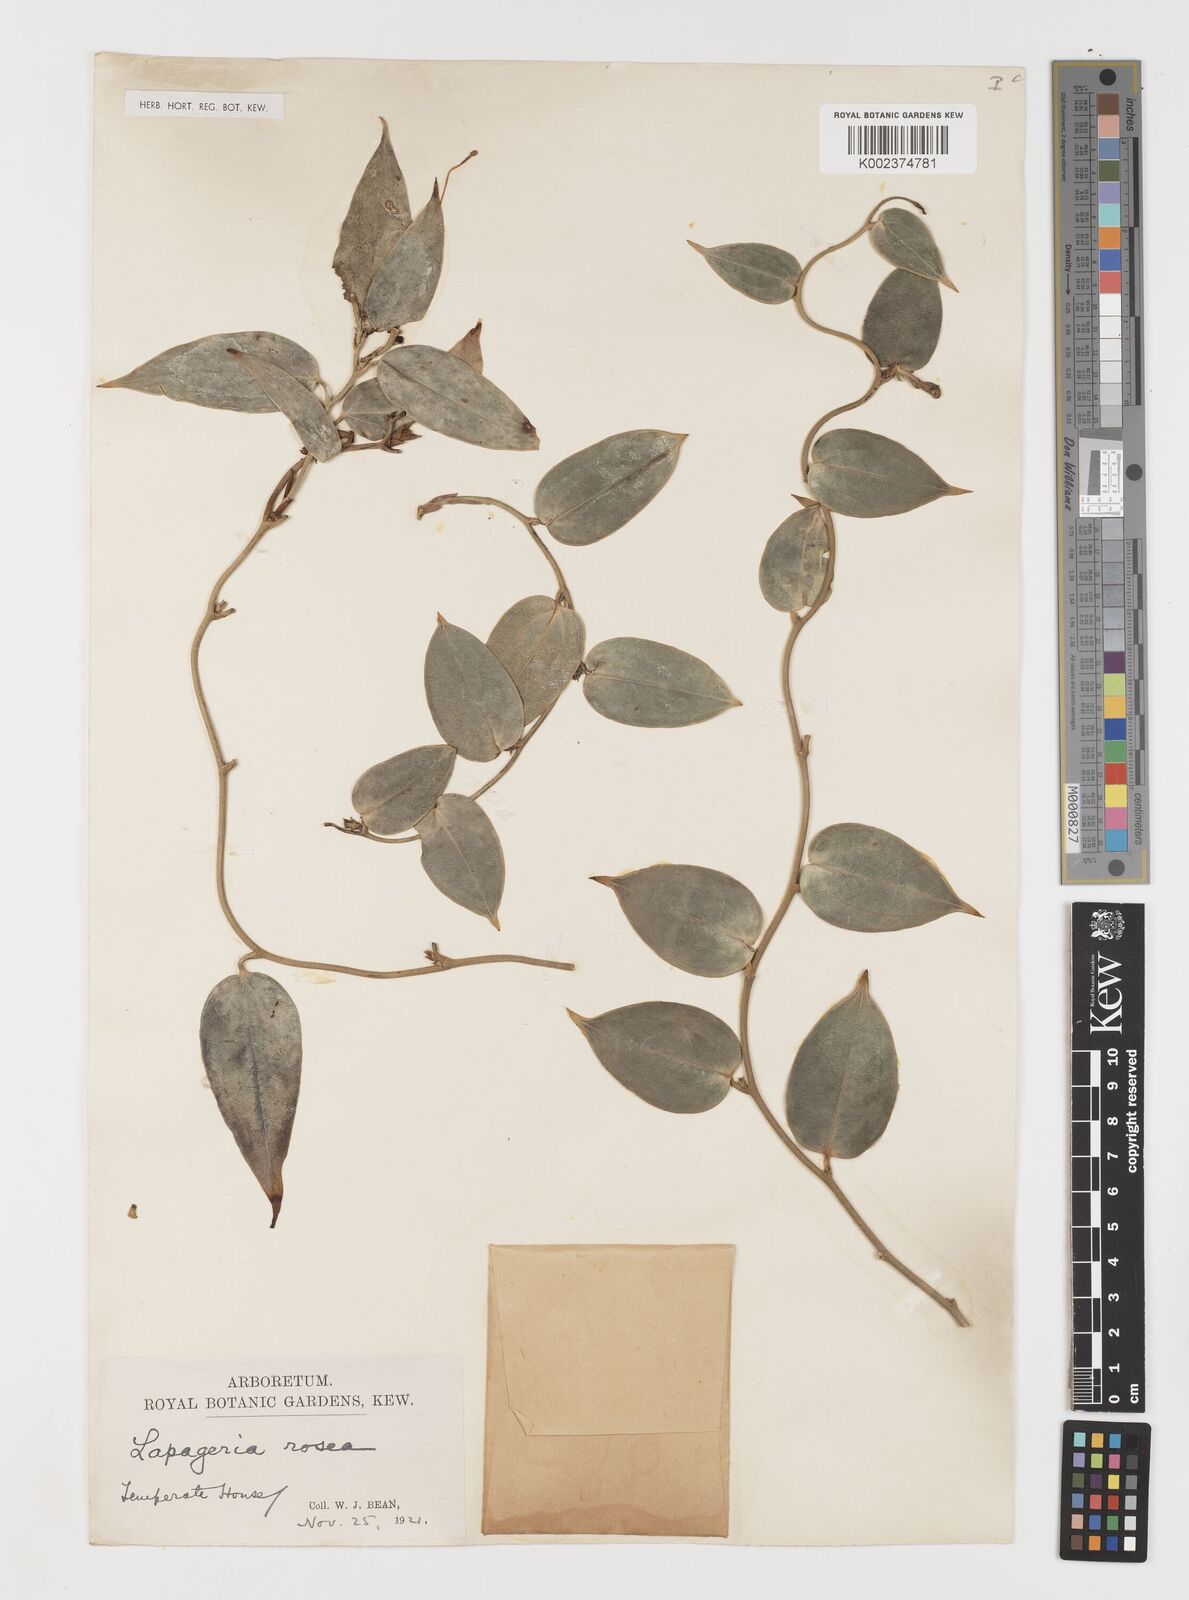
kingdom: Plantae
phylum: Tracheophyta
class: Liliopsida
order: Liliales
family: Philesiaceae
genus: Lapageria
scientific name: Lapageria rosea
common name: Chilean-bellflower
